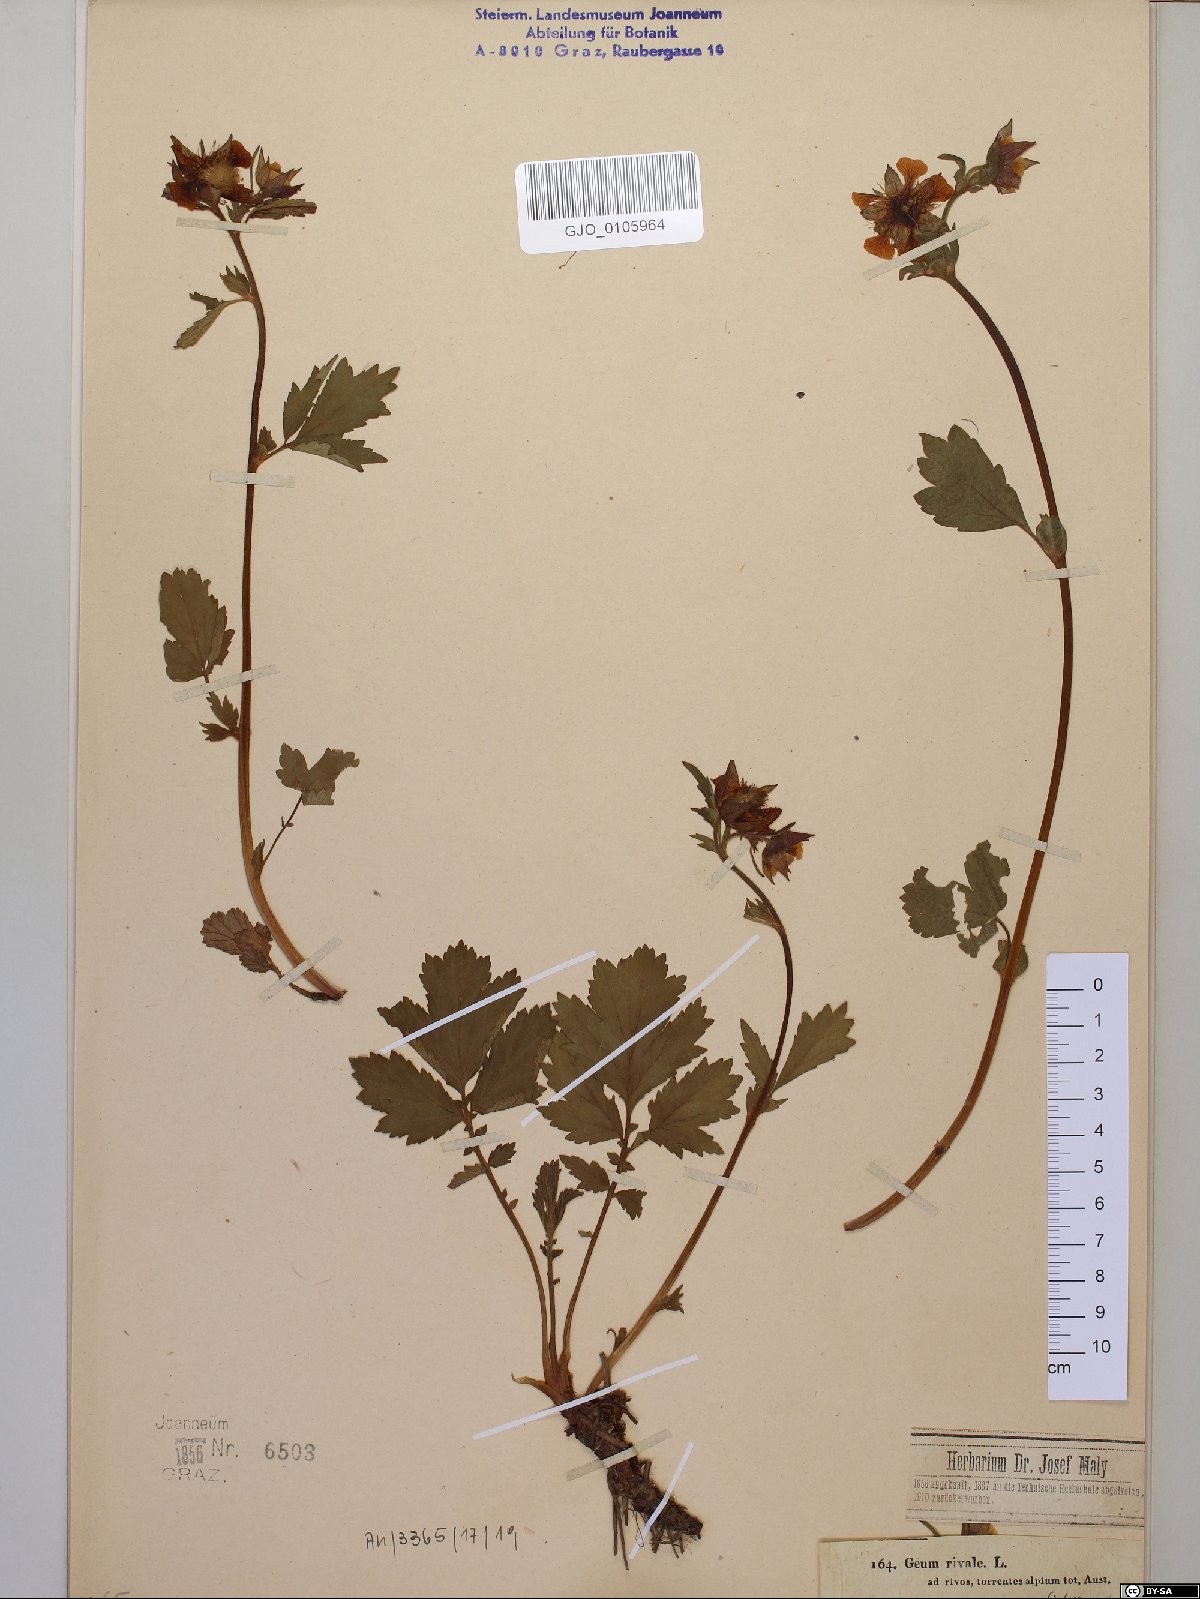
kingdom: Plantae
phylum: Tracheophyta
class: Magnoliopsida
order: Rosales
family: Rosaceae
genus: Geum
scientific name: Geum rivale
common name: Water avens
